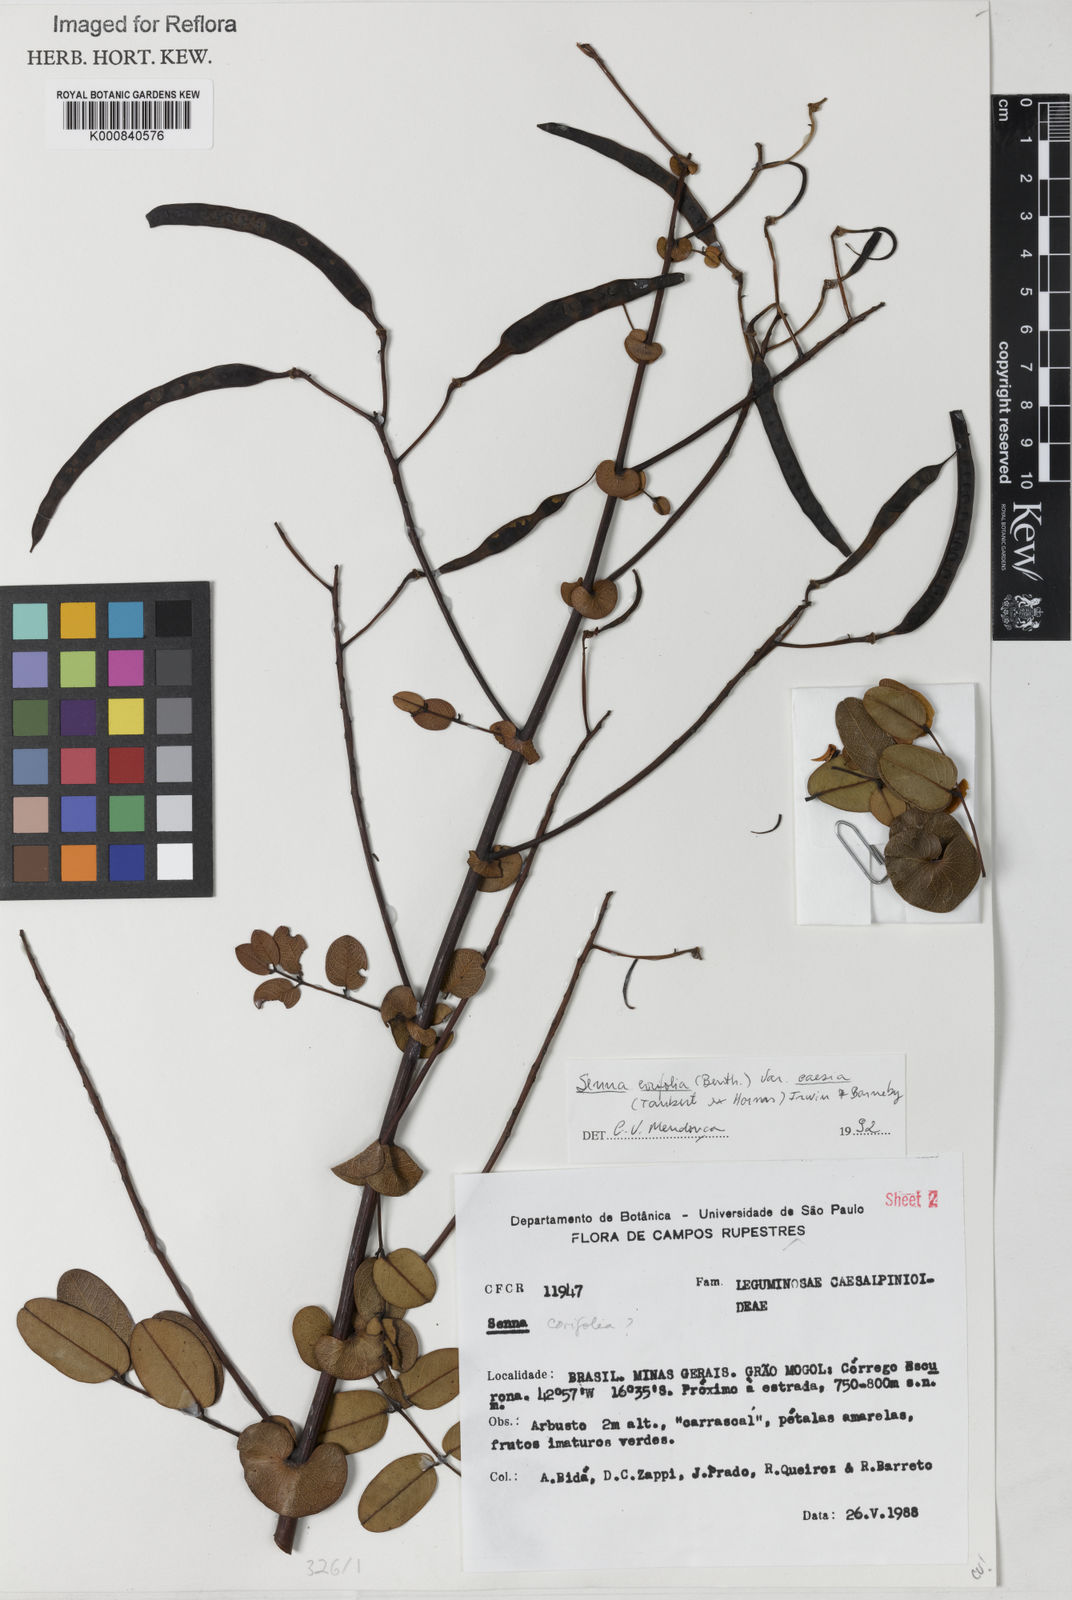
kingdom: Plantae
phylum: Tracheophyta
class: Magnoliopsida
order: Fabales
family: Fabaceae
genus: Senna
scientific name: Senna corifolia
